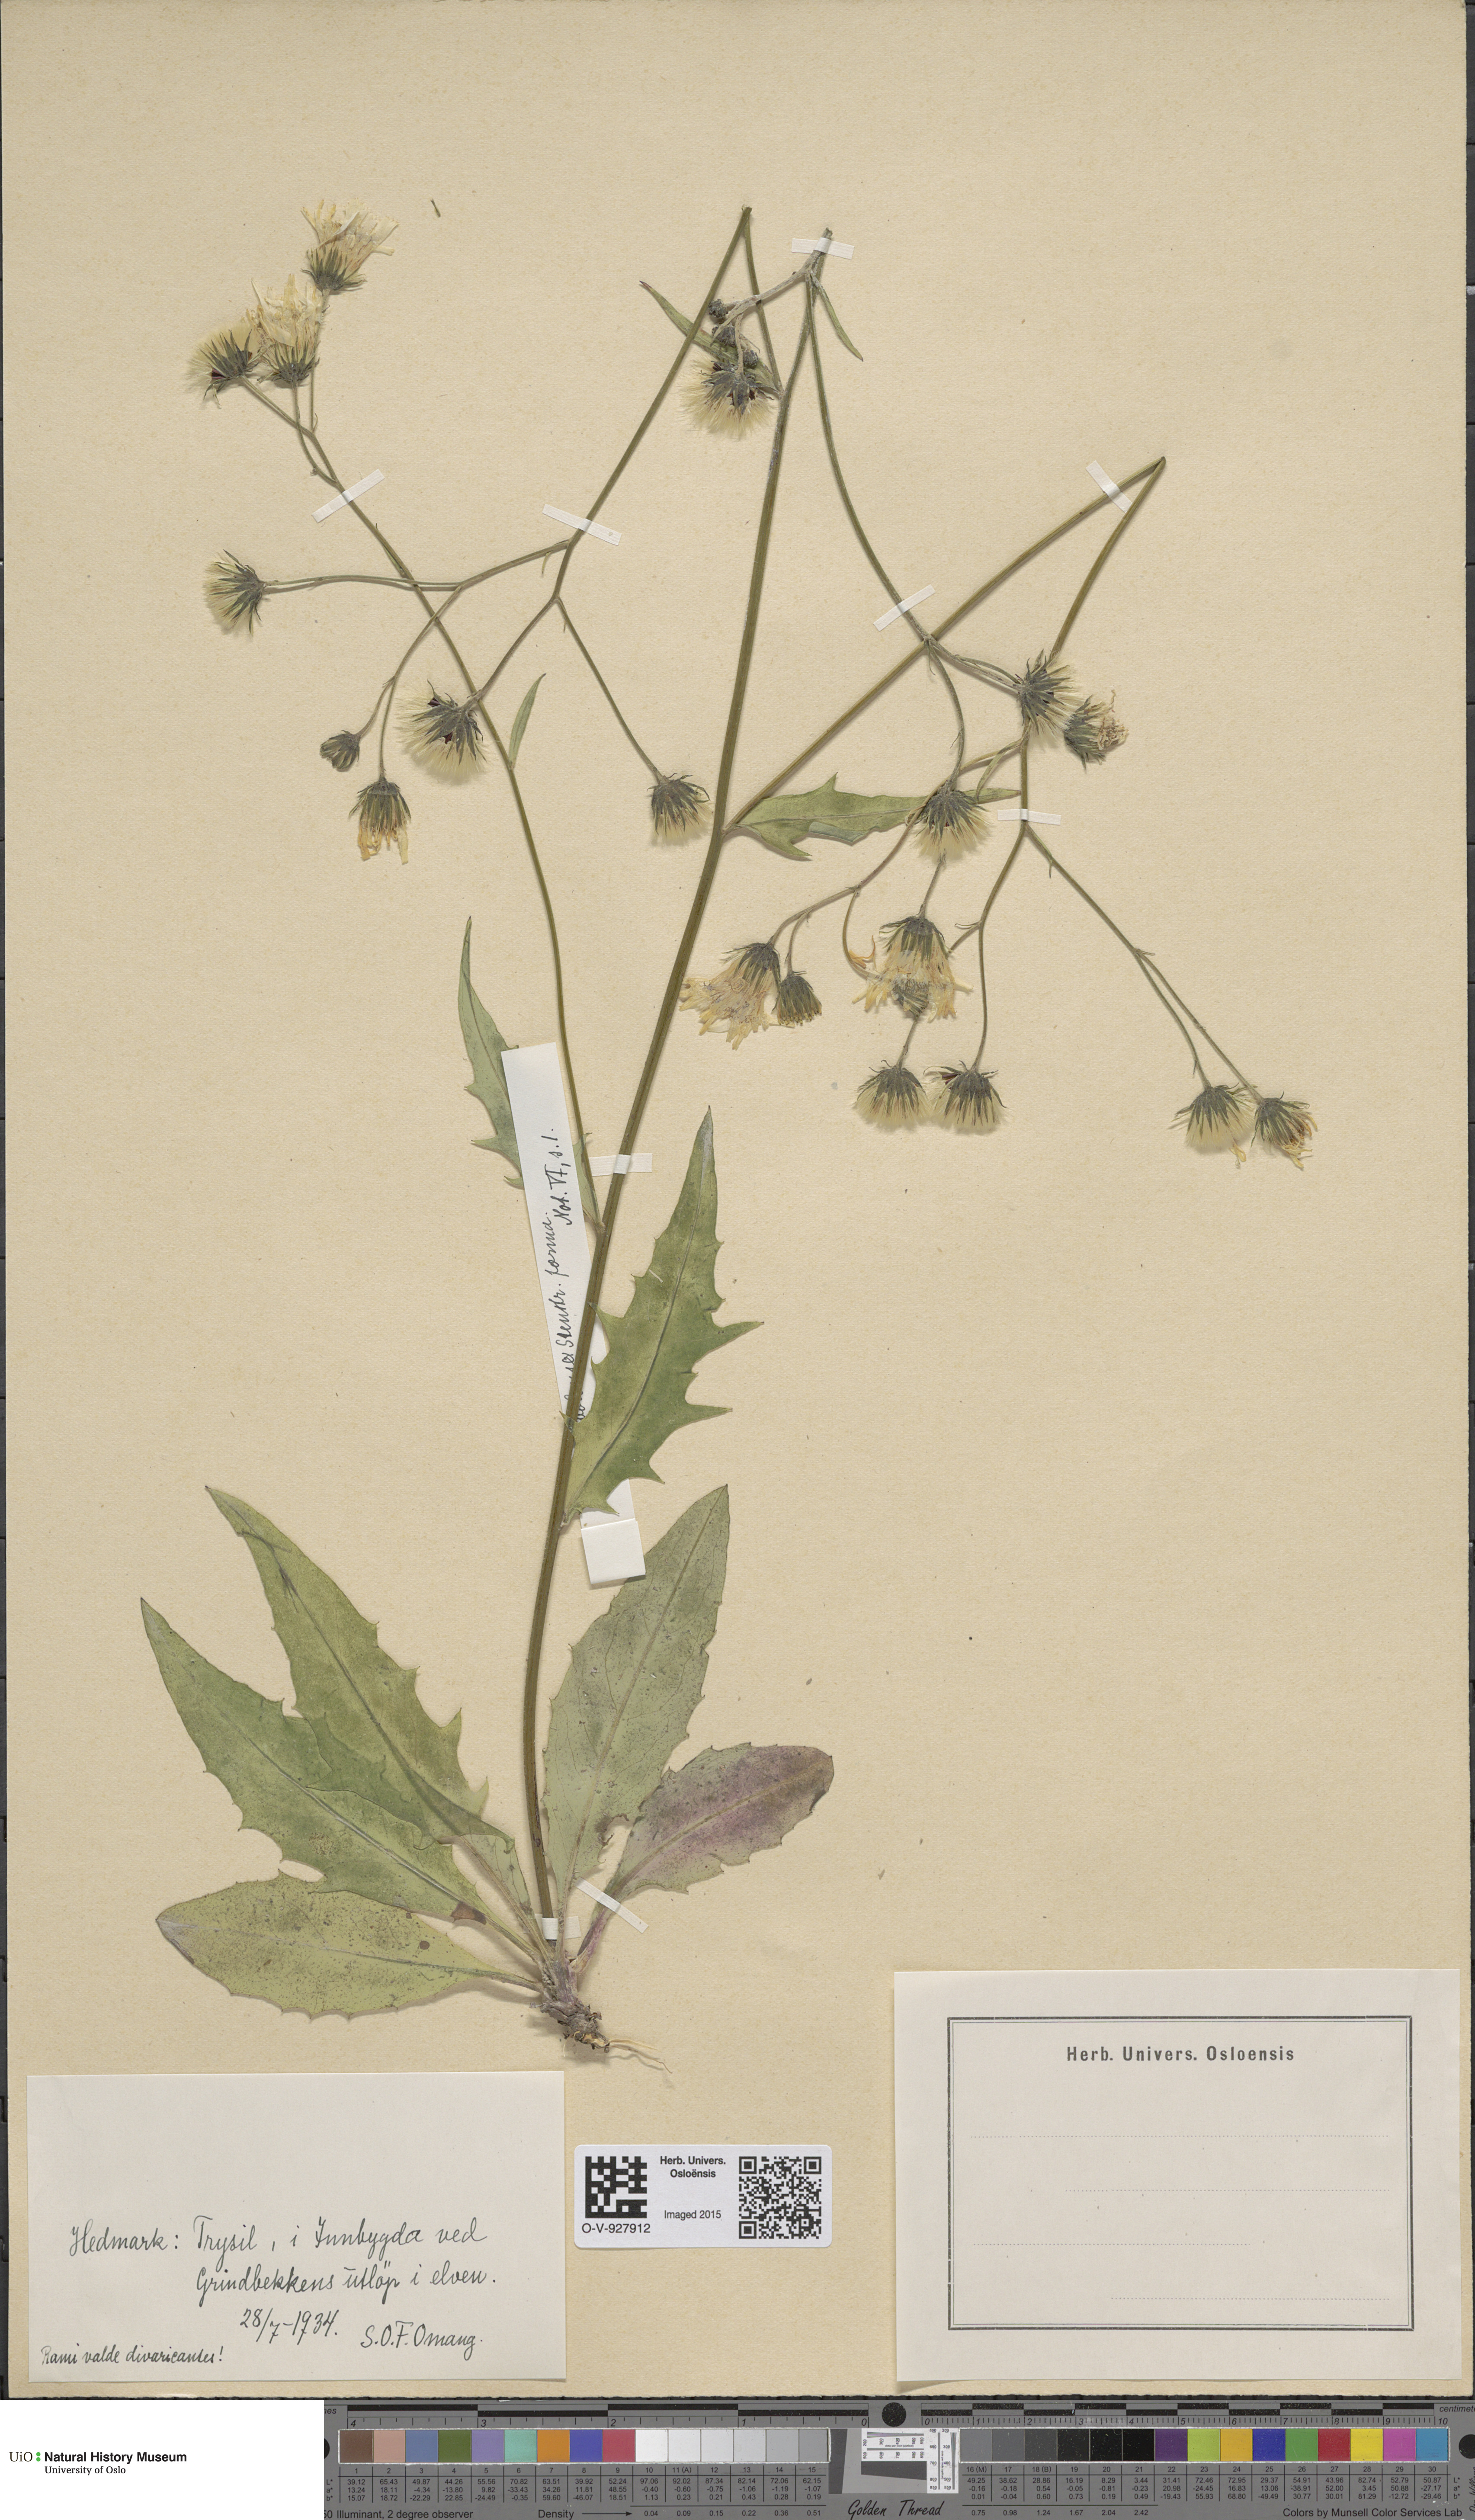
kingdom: Plantae
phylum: Tracheophyta
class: Magnoliopsida
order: Asterales
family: Asteraceae
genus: Hieracium
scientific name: Hieracium orbolense
